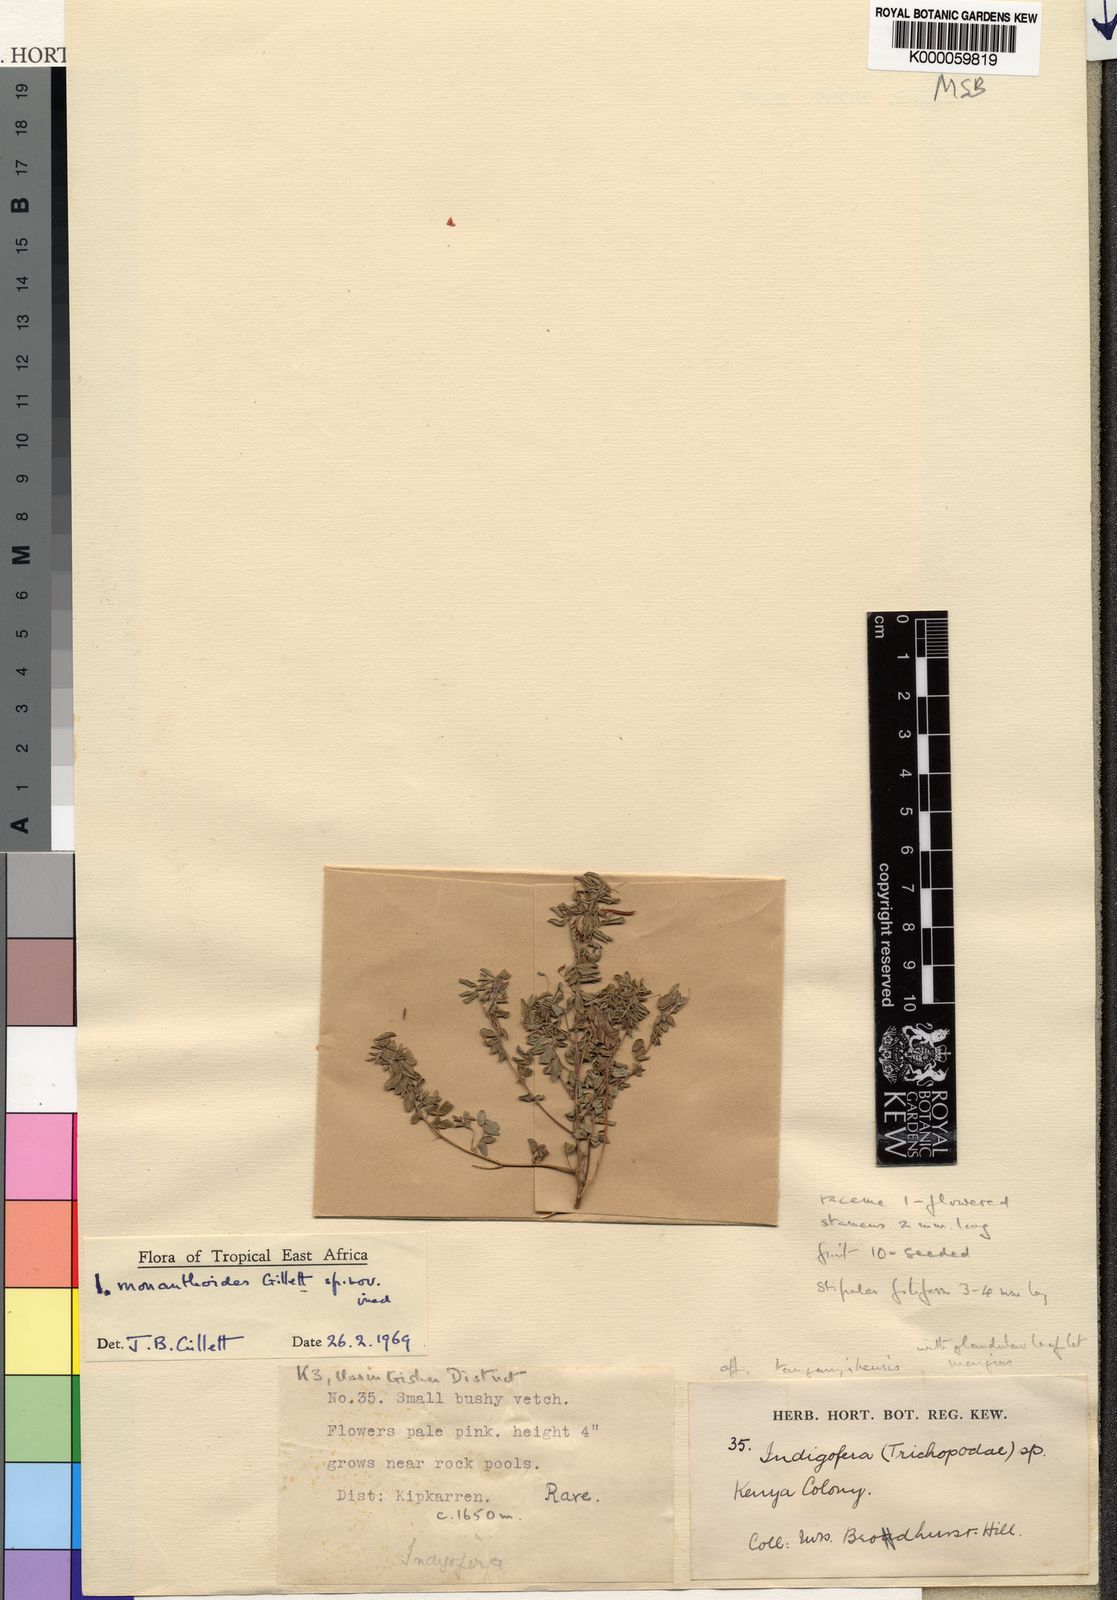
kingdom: Plantae
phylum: Tracheophyta
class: Magnoliopsida
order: Fabales
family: Fabaceae
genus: Indigofera
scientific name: Indigofera monanthoides
